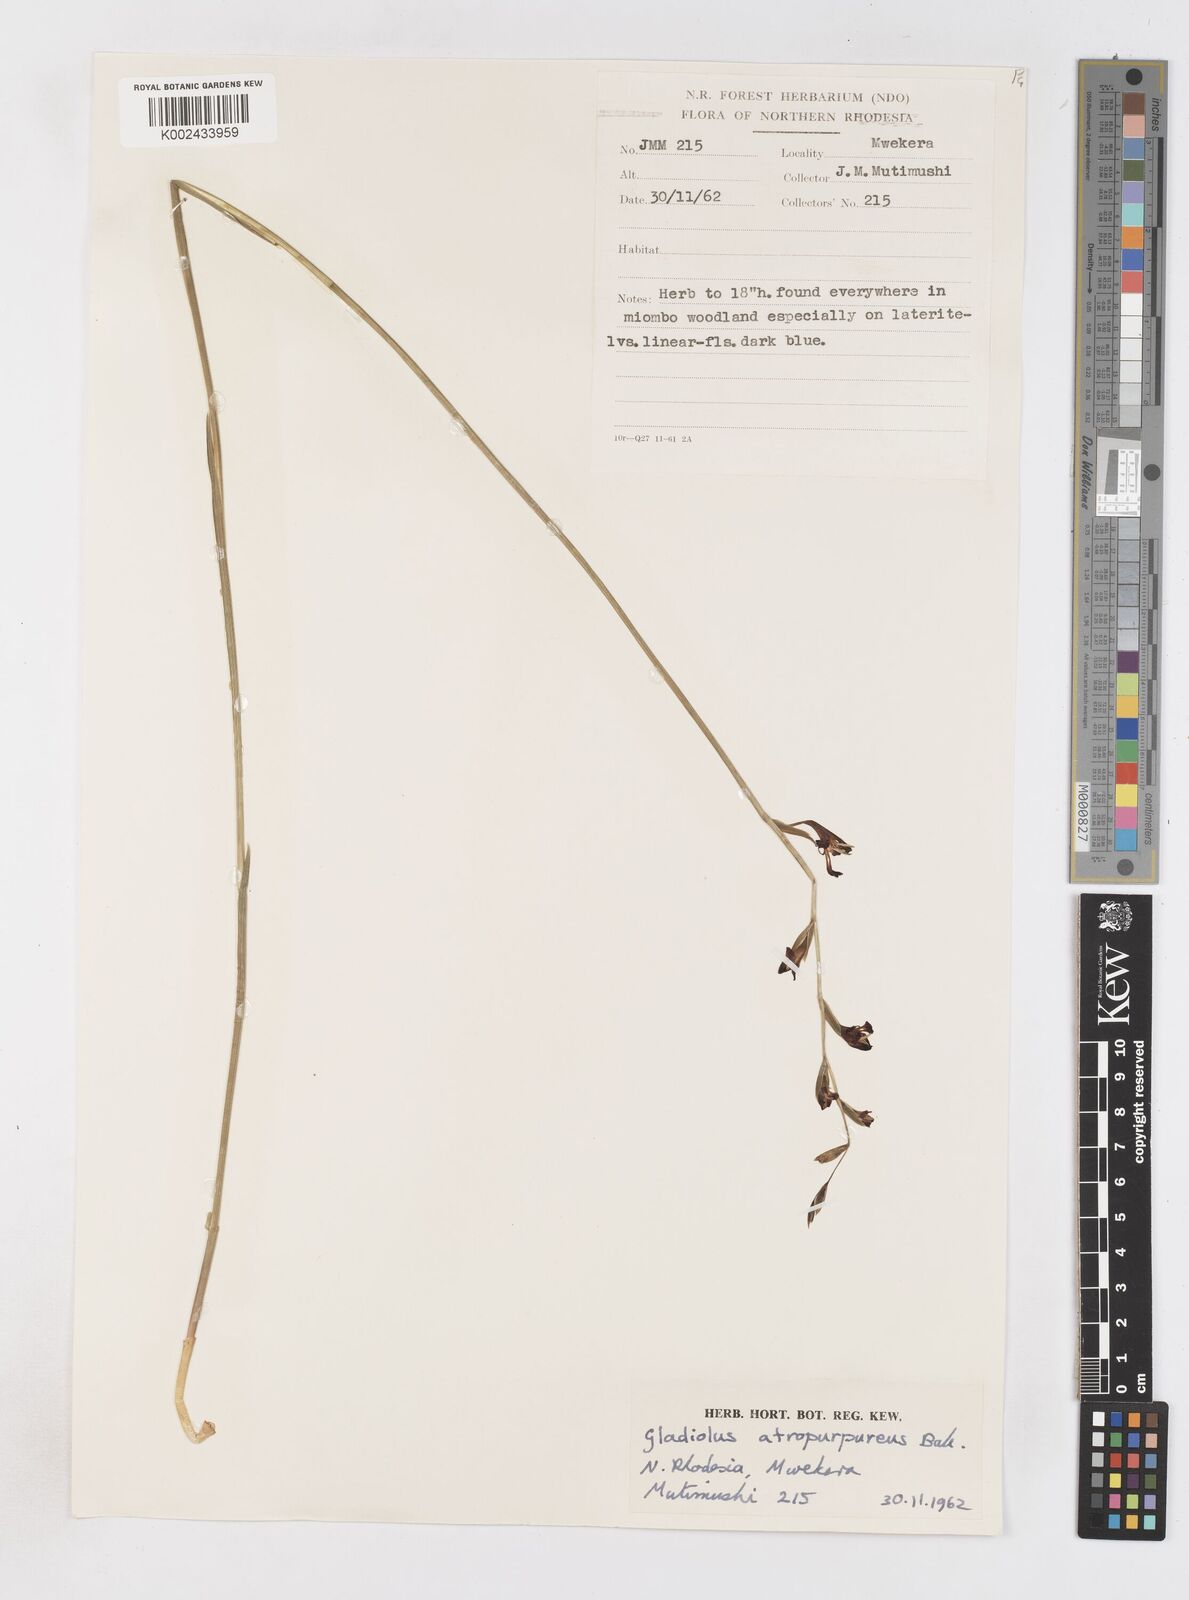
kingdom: Plantae
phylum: Tracheophyta
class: Liliopsida
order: Asparagales
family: Iridaceae
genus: Gladiolus
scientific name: Gladiolus atropurpureus
